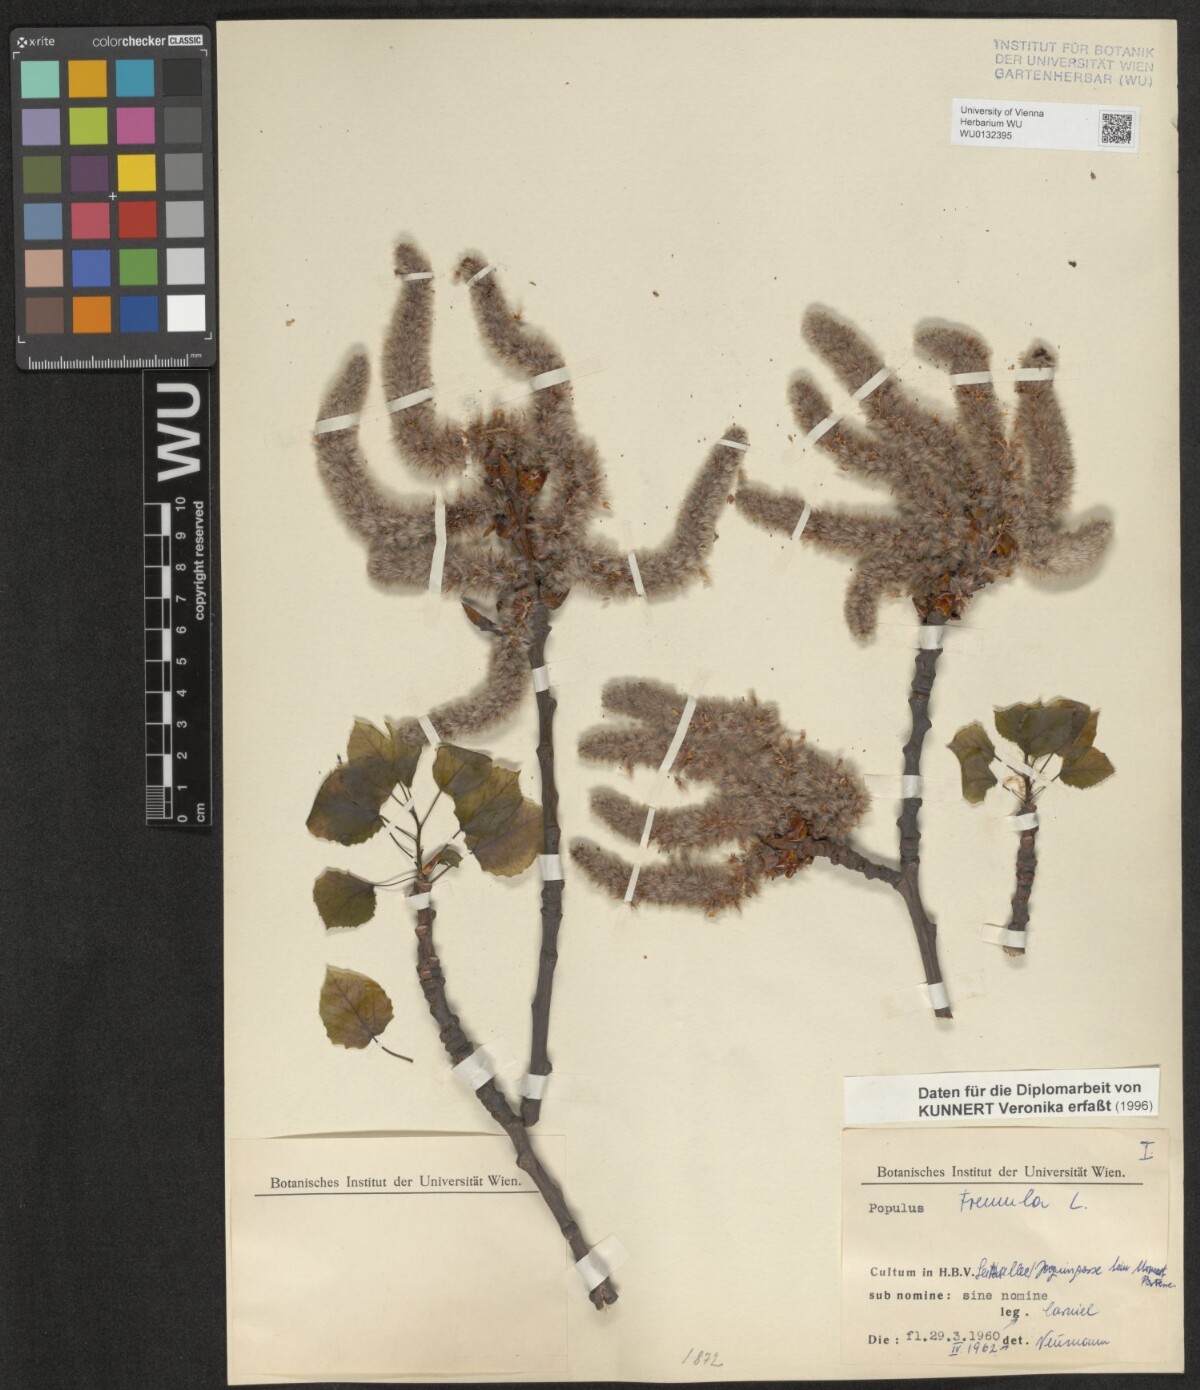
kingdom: Plantae
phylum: Tracheophyta
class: Magnoliopsida
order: Malpighiales
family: Salicaceae
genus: Populus
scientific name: Populus tremula
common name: European aspen
